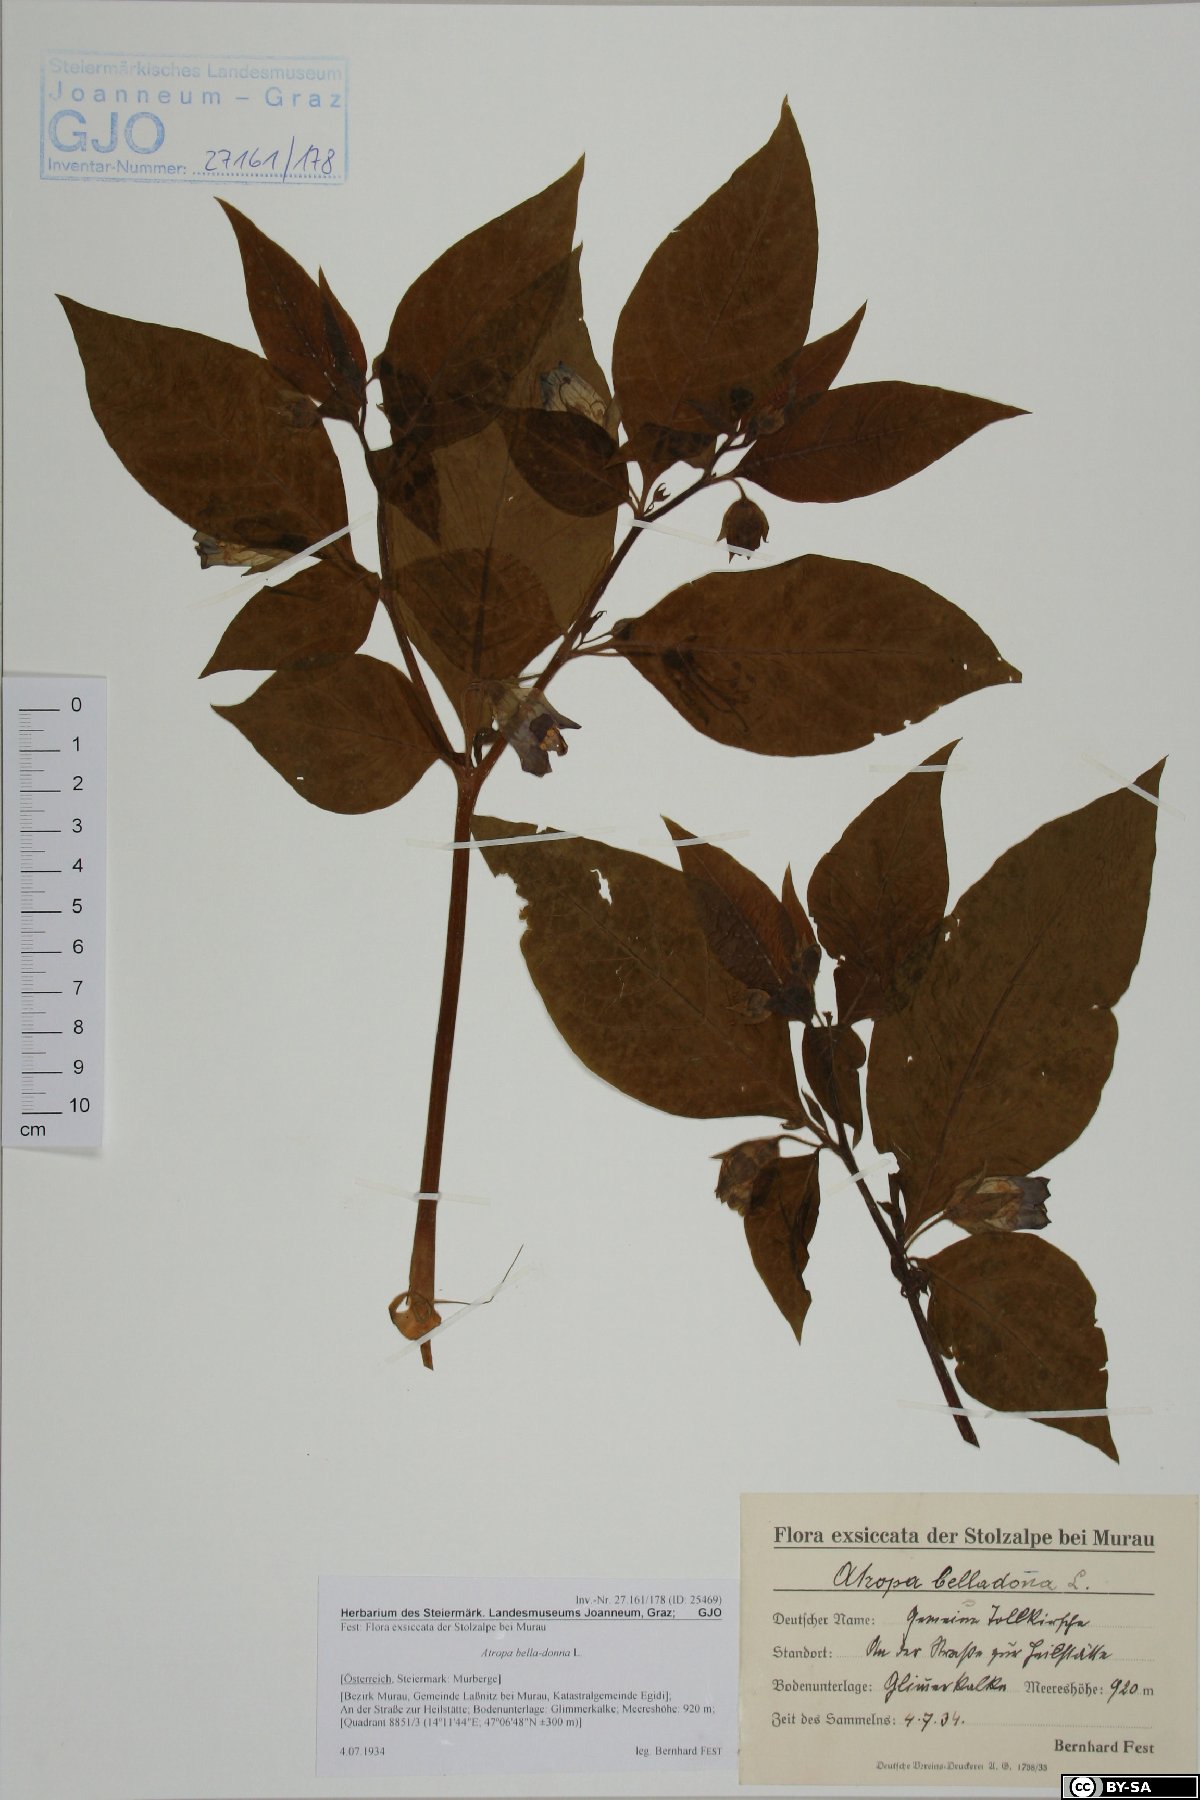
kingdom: Plantae
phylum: Tracheophyta
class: Magnoliopsida
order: Solanales
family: Solanaceae
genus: Atropa
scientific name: Atropa belladonna
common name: Deadly nightshade
